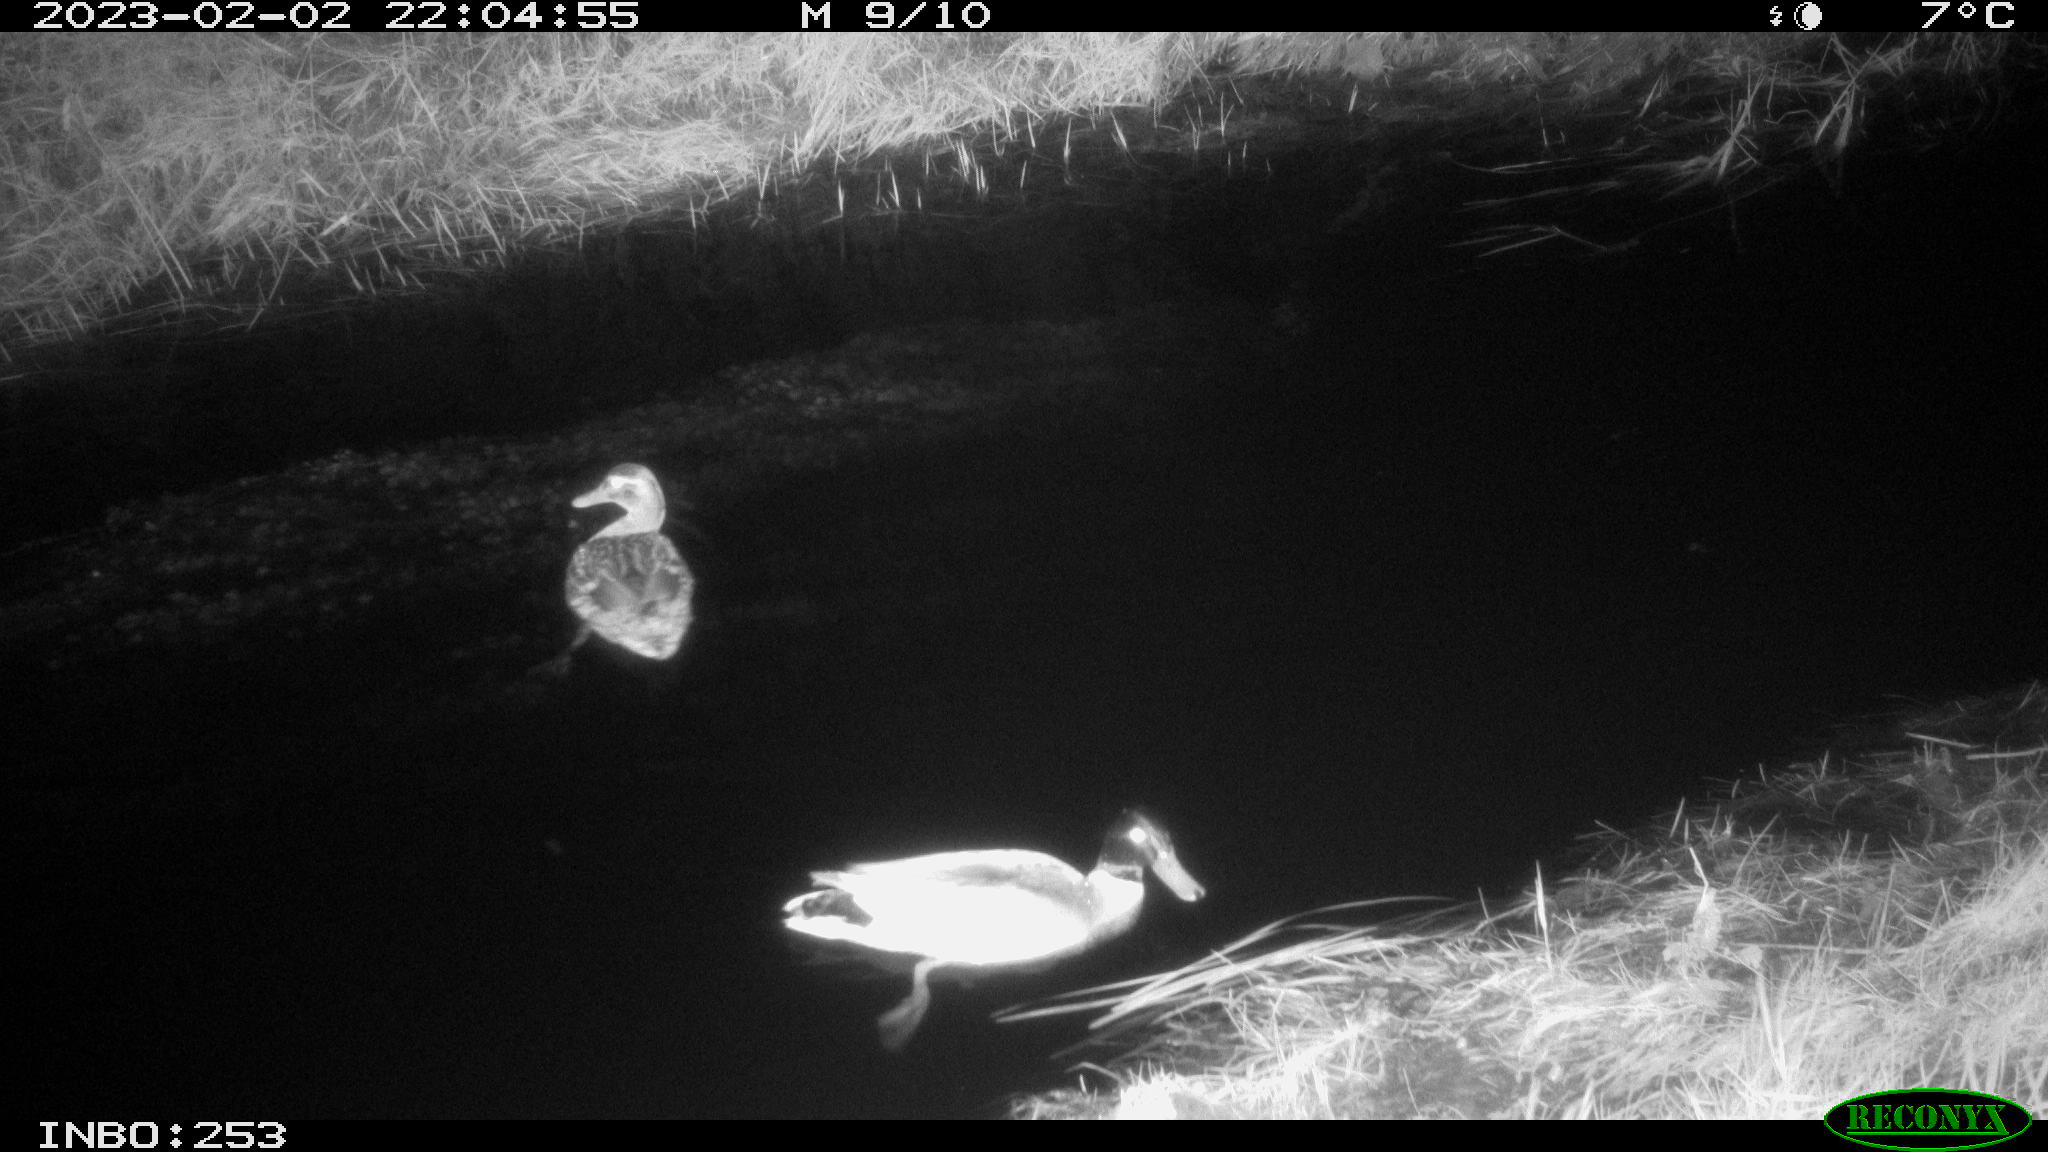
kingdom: Animalia
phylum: Chordata
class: Aves
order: Anseriformes
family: Anatidae
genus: Anas
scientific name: Anas
